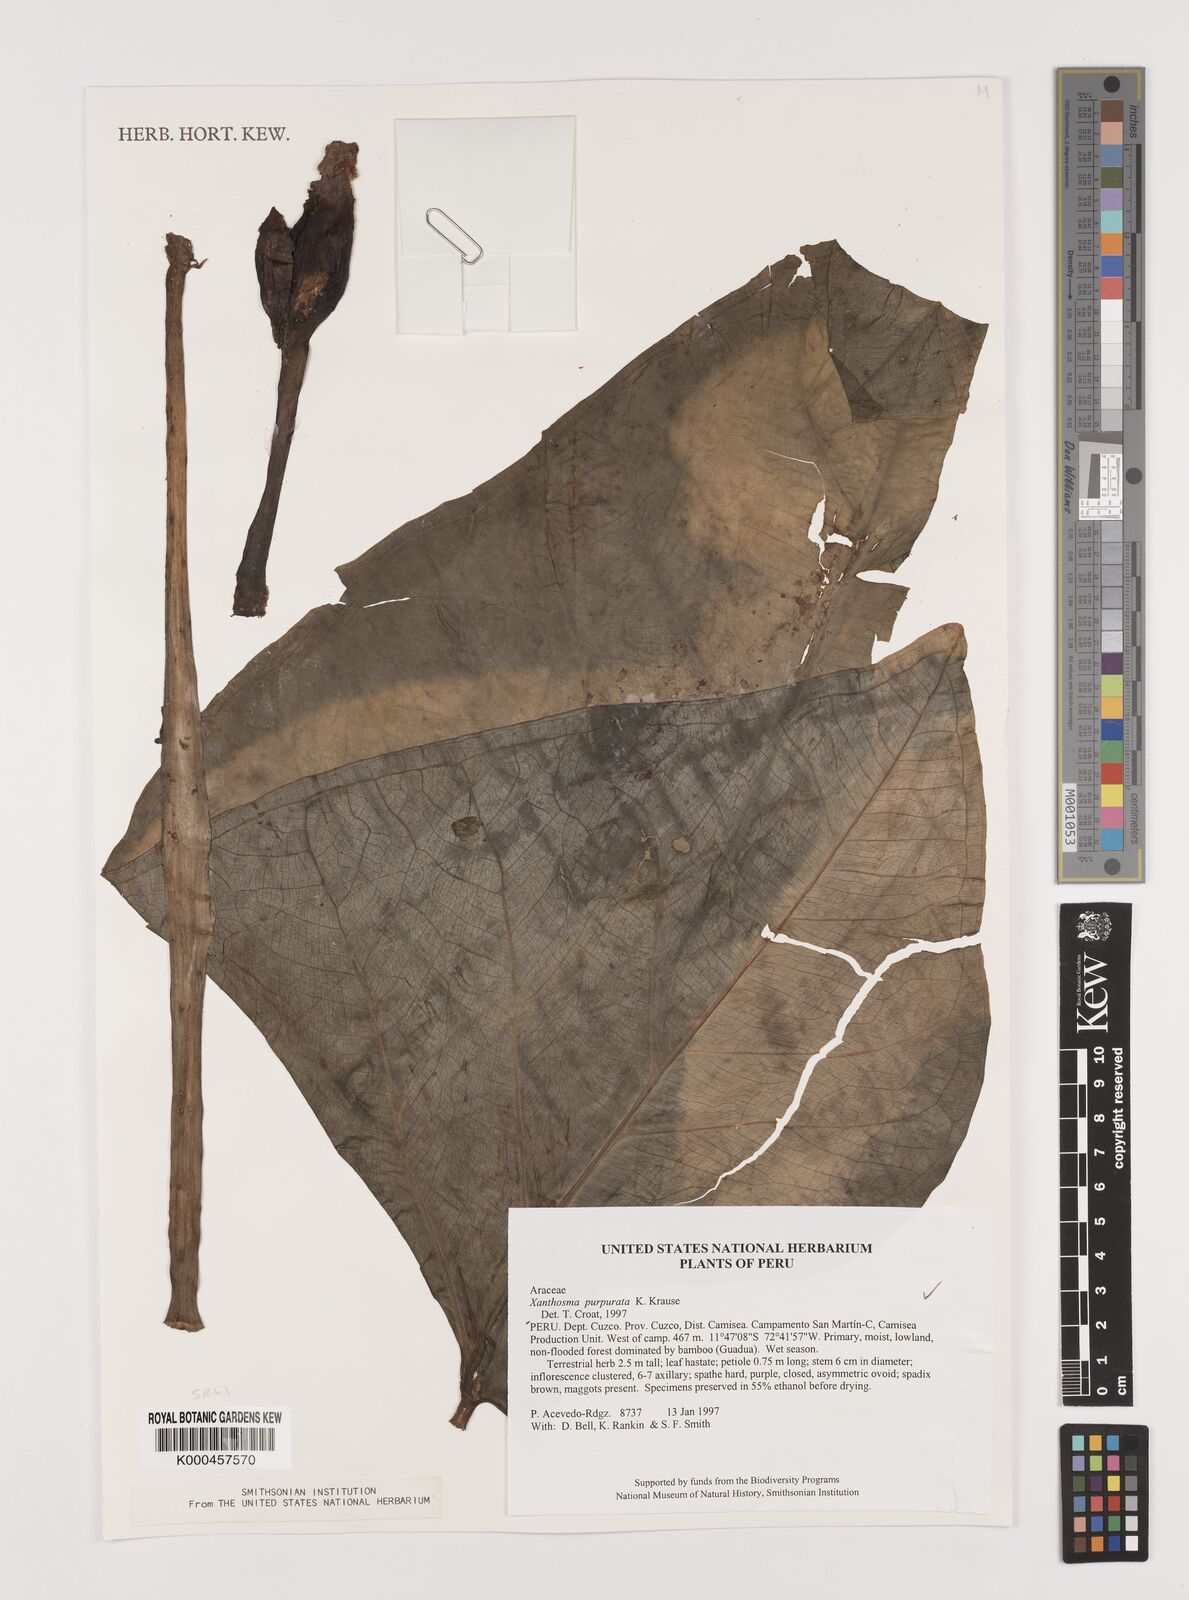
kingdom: Plantae
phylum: Tracheophyta
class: Liliopsida
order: Alismatales
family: Araceae
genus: Xanthosoma
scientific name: Xanthosoma hylaeae
